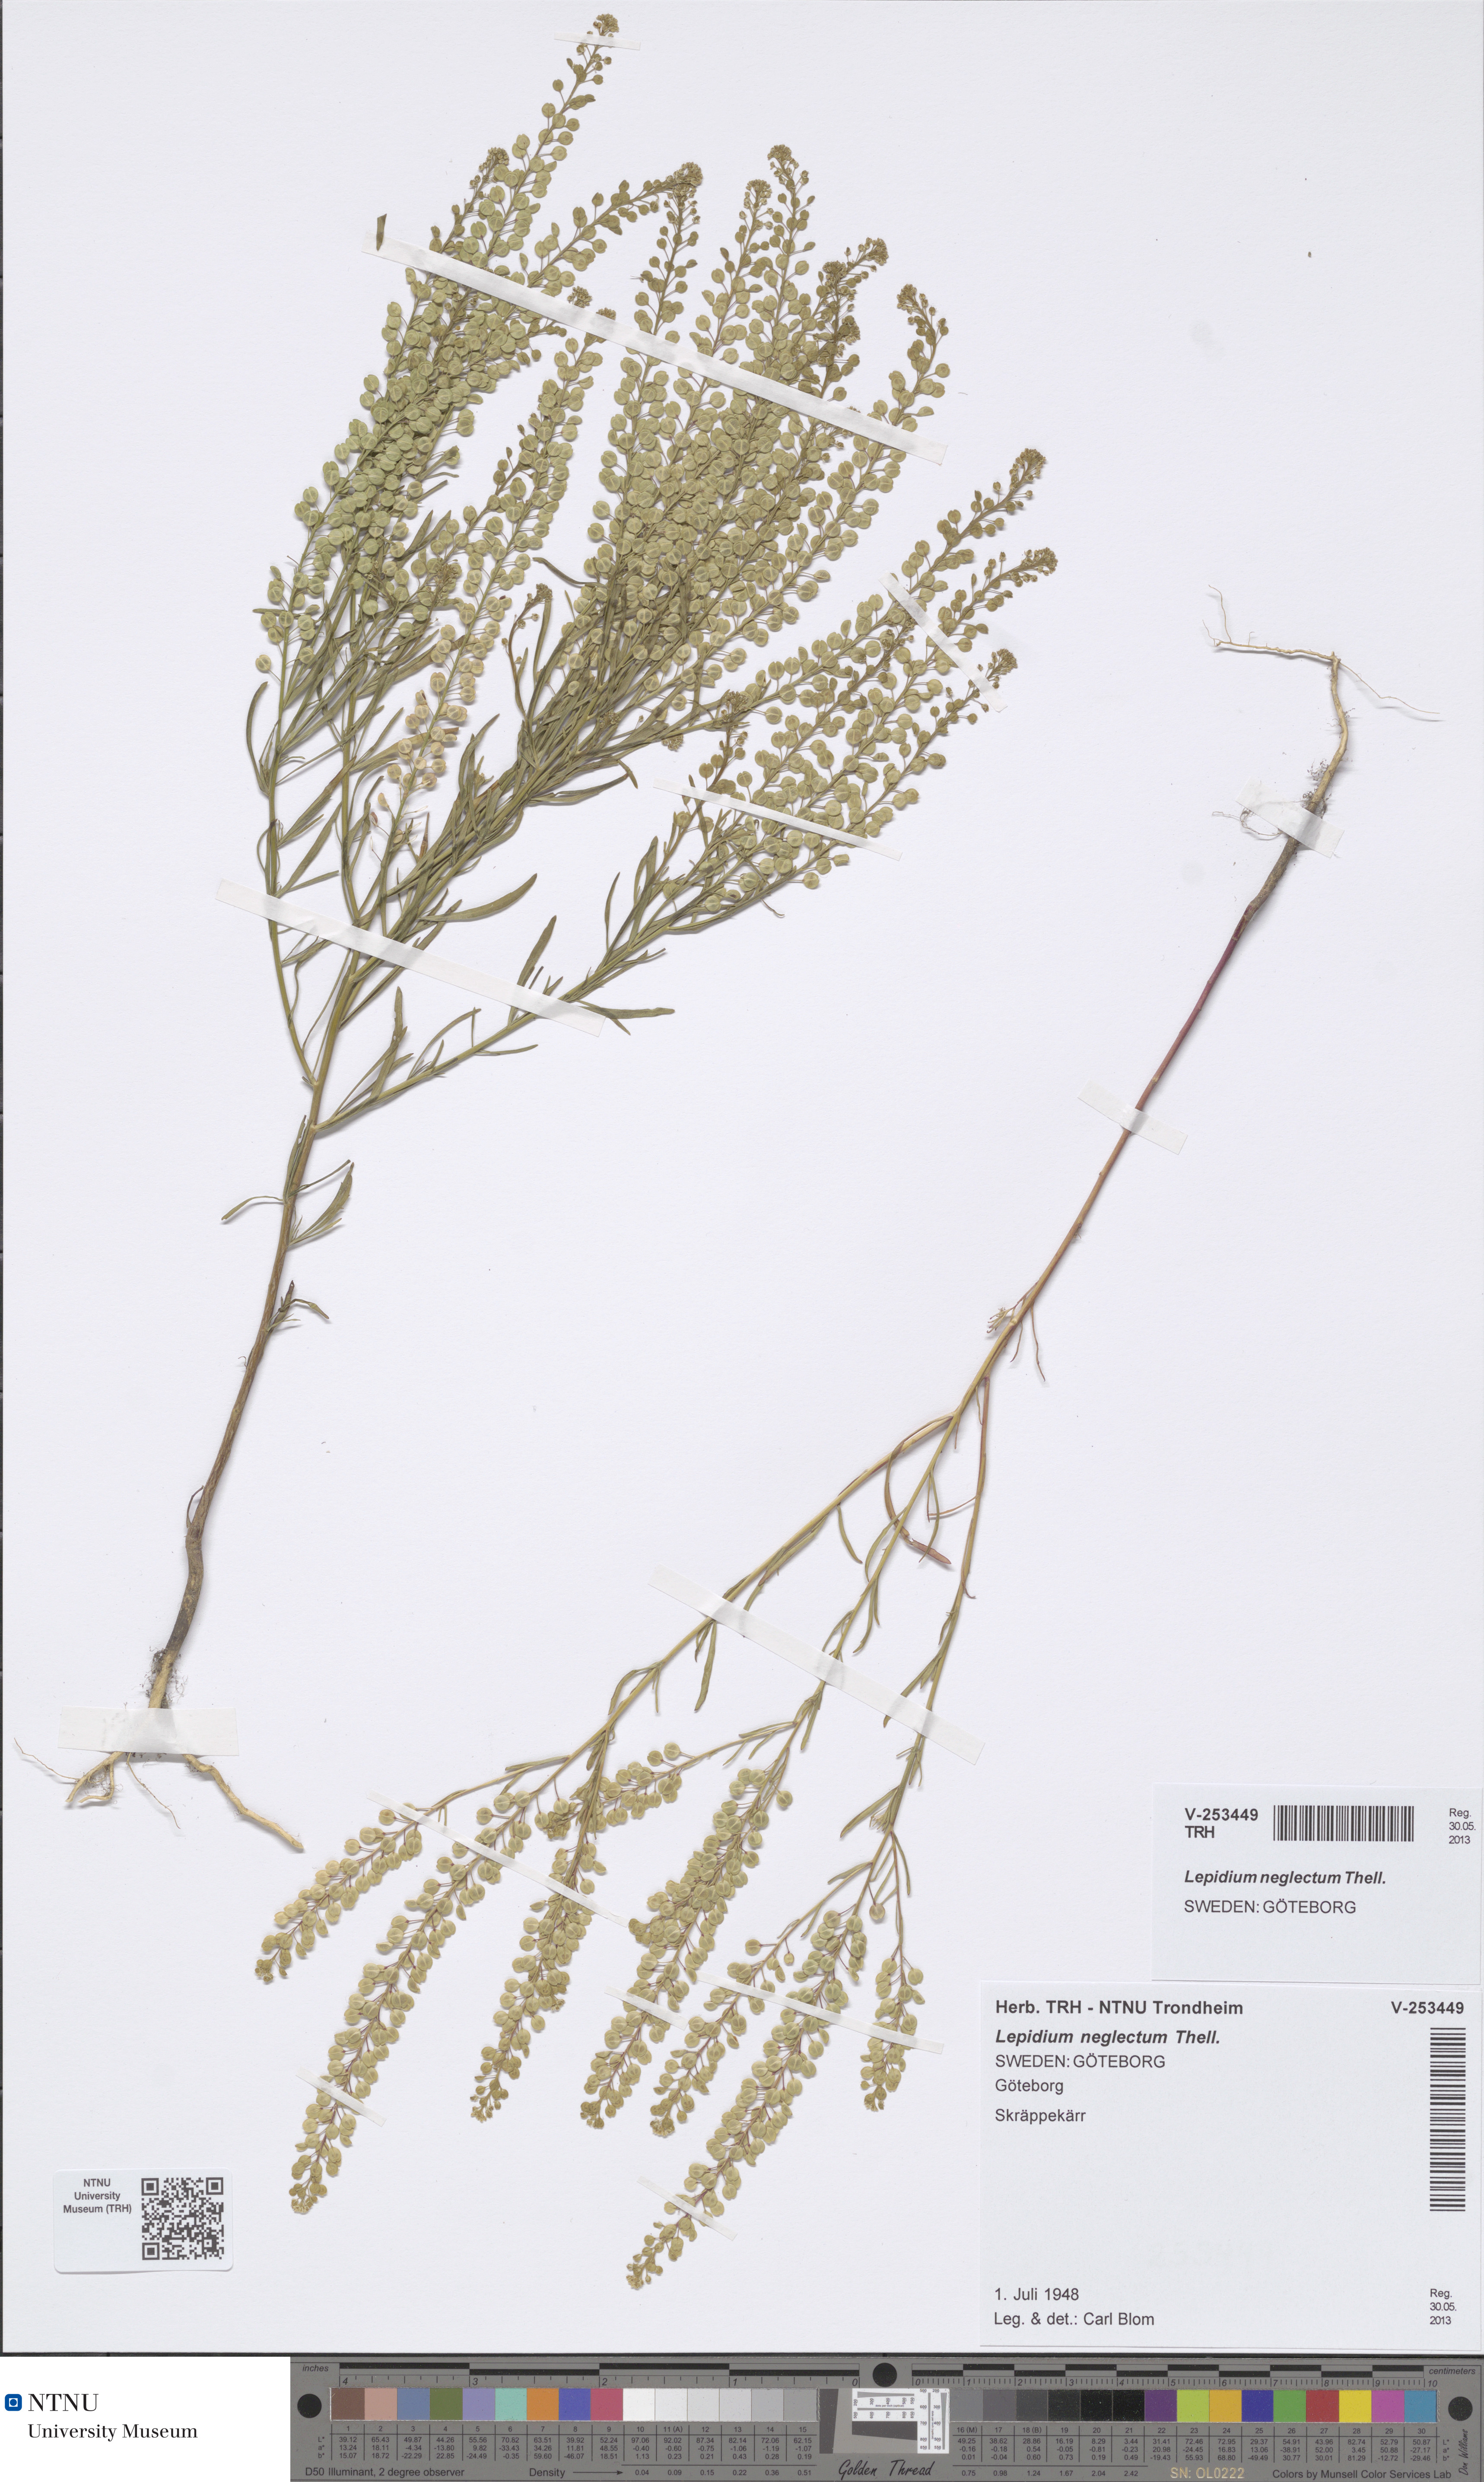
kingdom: Plantae
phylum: Tracheophyta
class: Magnoliopsida
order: Brassicales
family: Brassicaceae
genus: Lepidium
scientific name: Lepidium densiflorum
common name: Miner's pepperwort
